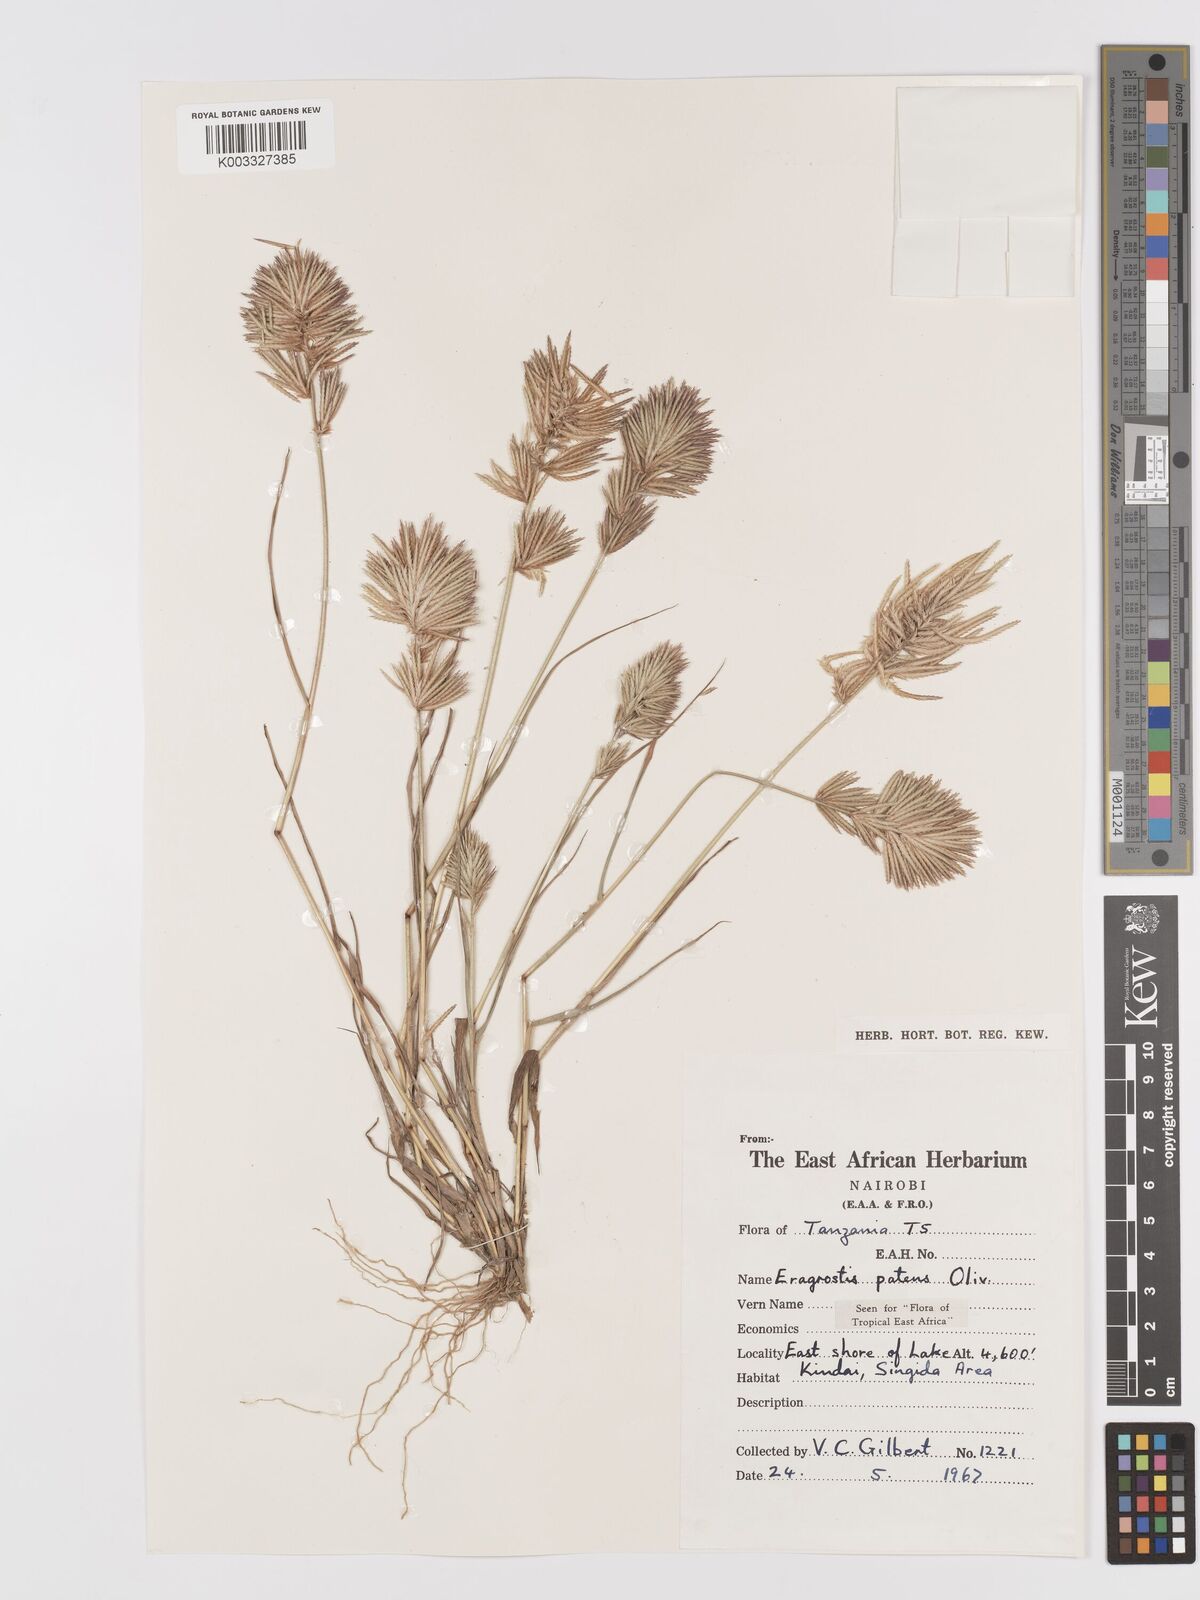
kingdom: Plantae
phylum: Tracheophyta
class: Liliopsida
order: Poales
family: Poaceae
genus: Eragrostis
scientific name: Eragrostis patens
